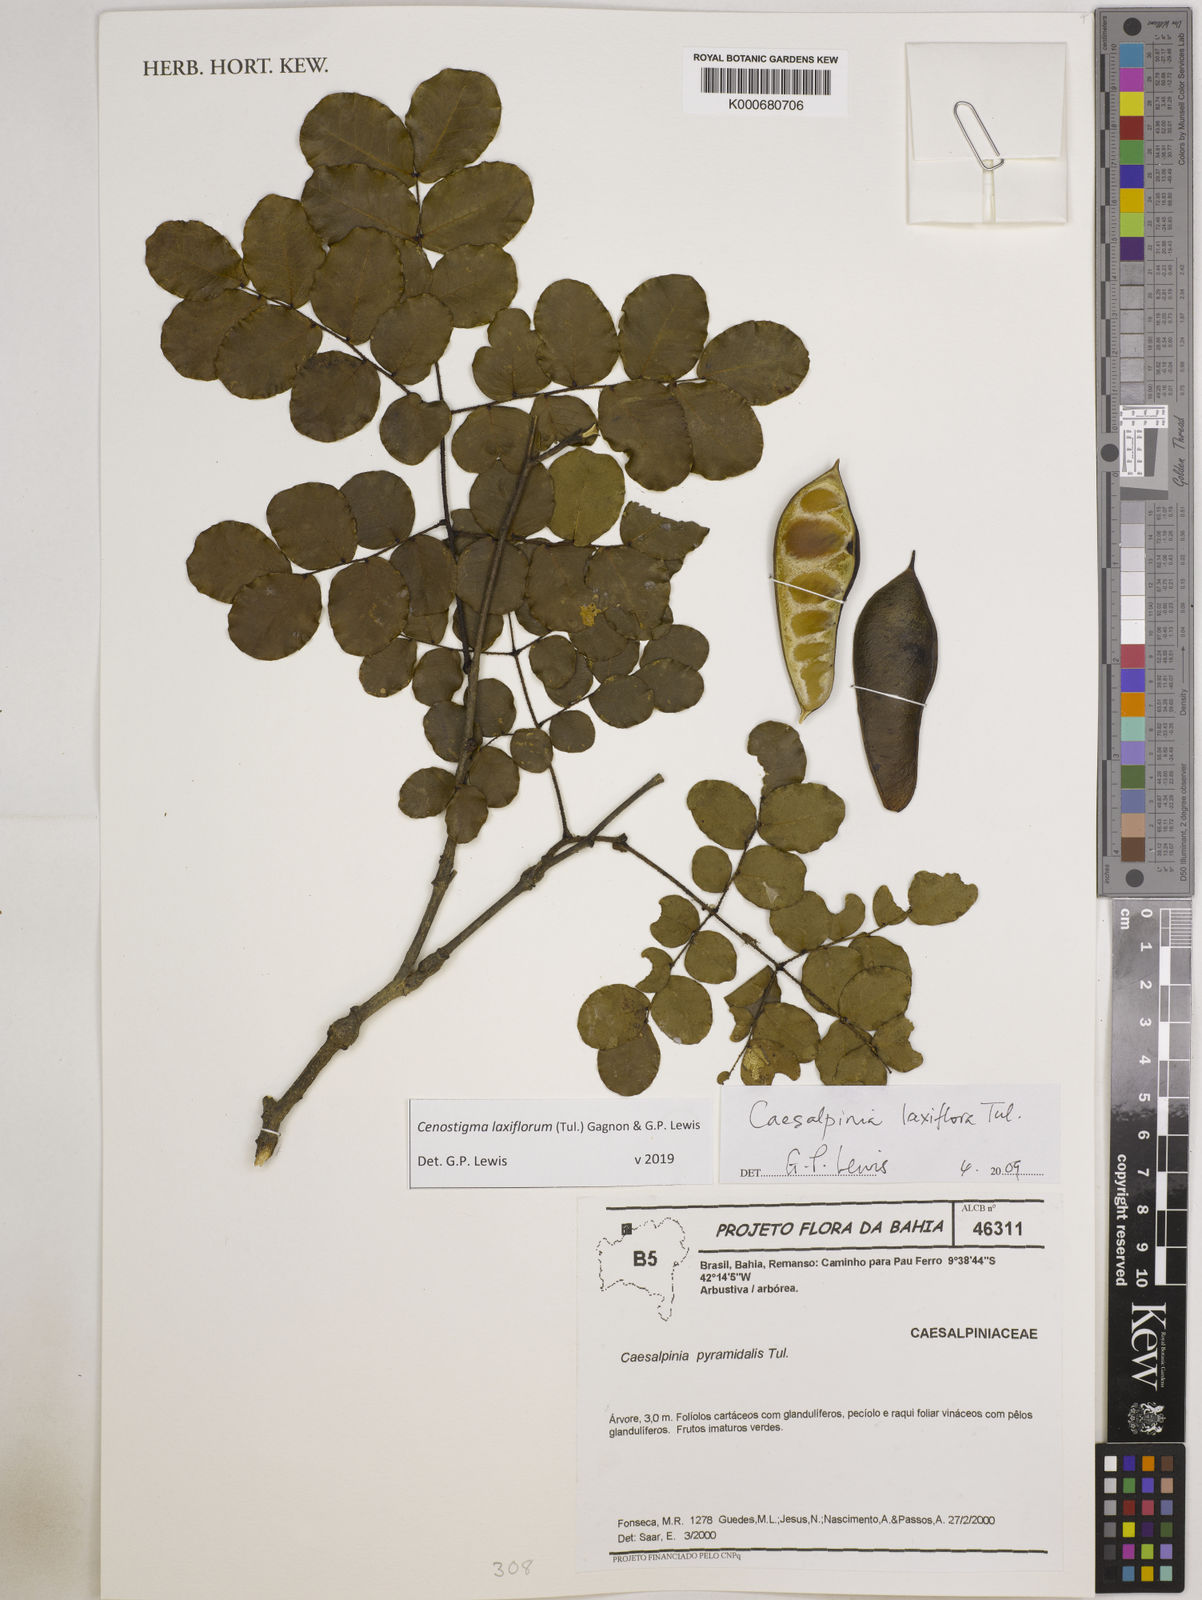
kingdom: Plantae
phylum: Tracheophyta
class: Magnoliopsida
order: Fabales
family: Fabaceae
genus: Cenostigma
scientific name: Cenostigma laxiflorum
